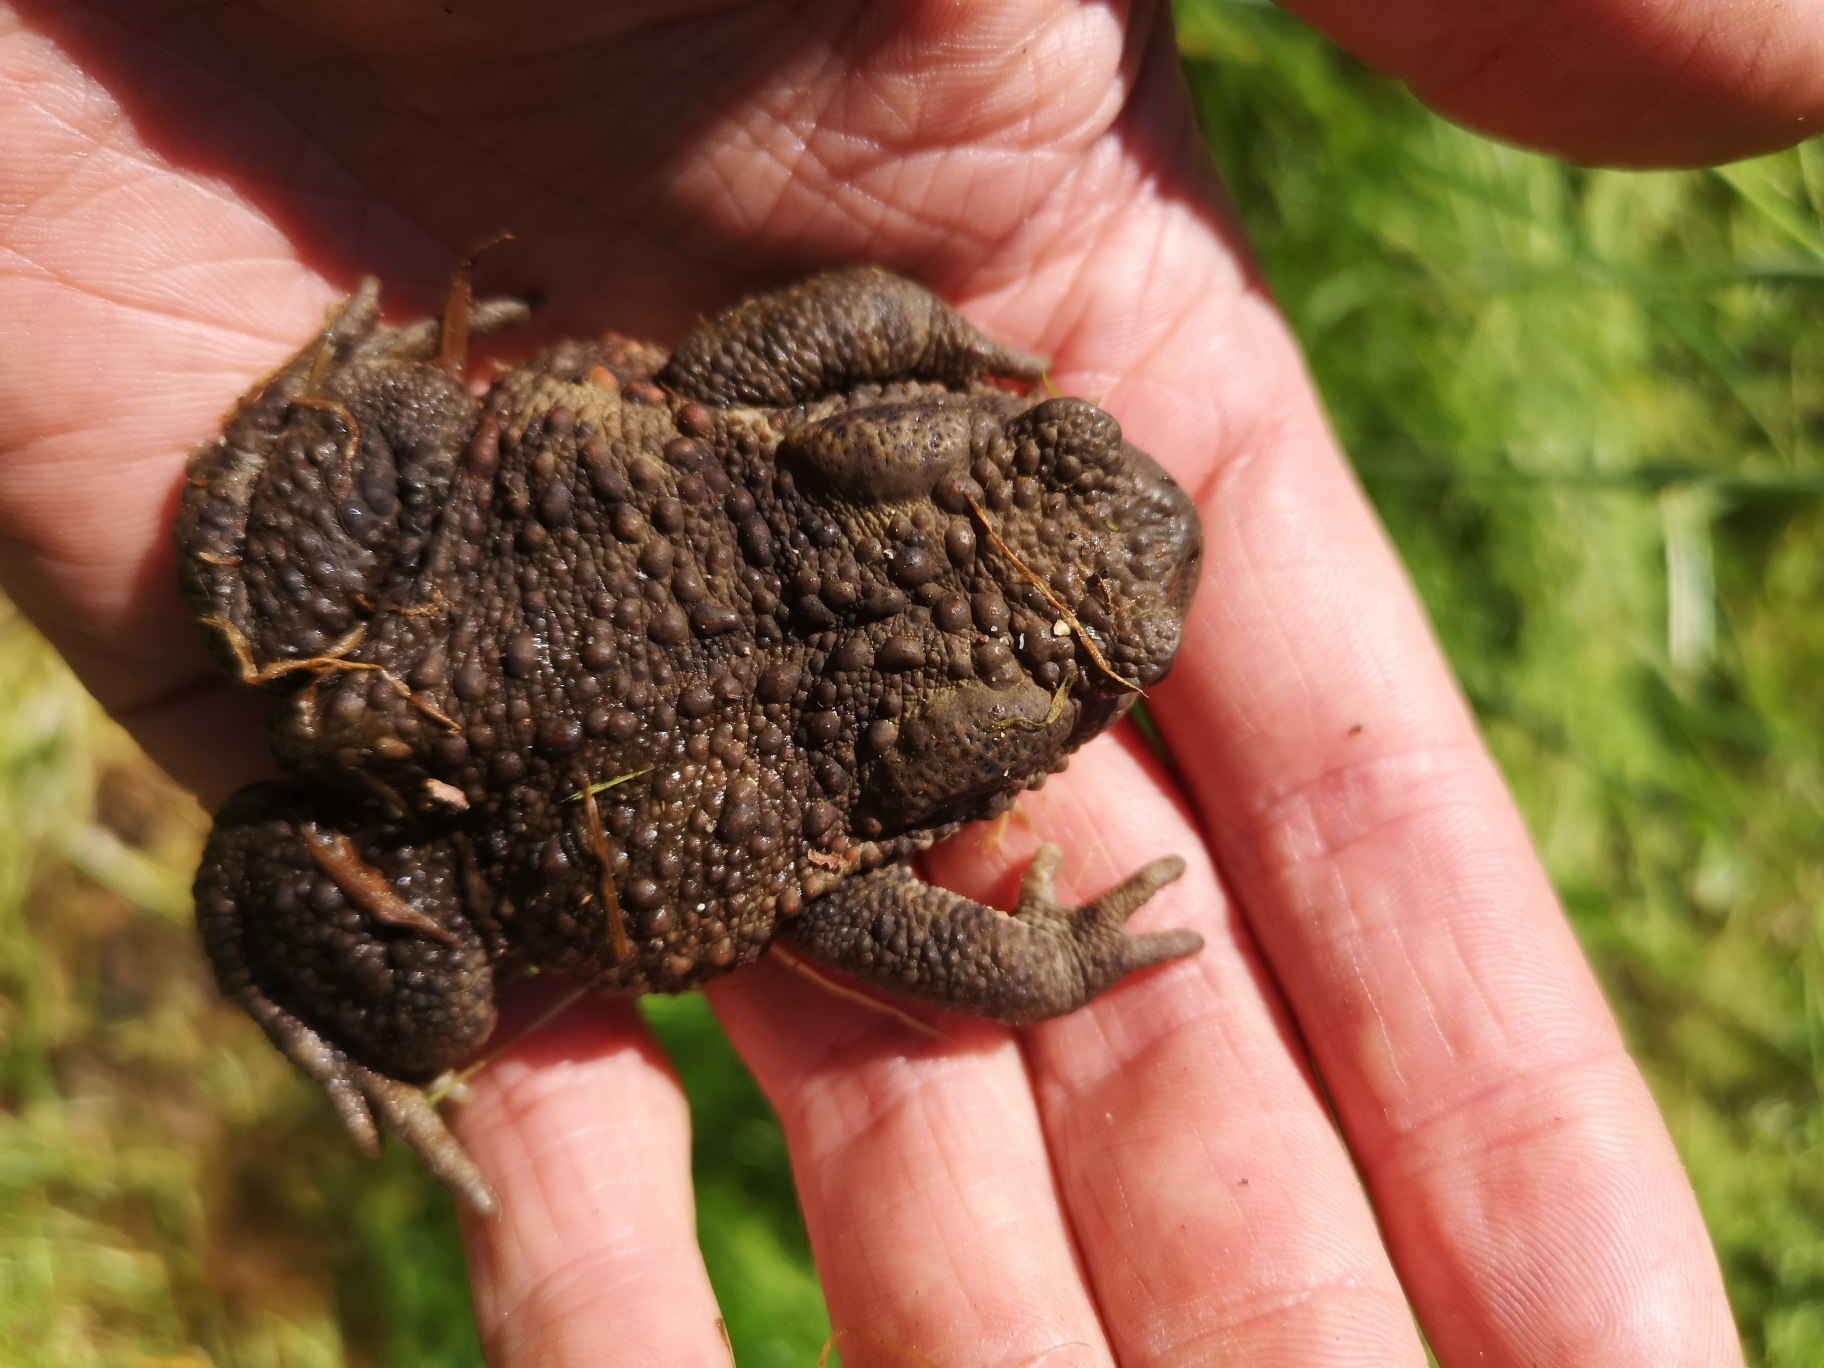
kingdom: Animalia
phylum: Chordata
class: Amphibia
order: Anura
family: Bufonidae
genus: Bufo
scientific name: Bufo bufo
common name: Skrubtudse
